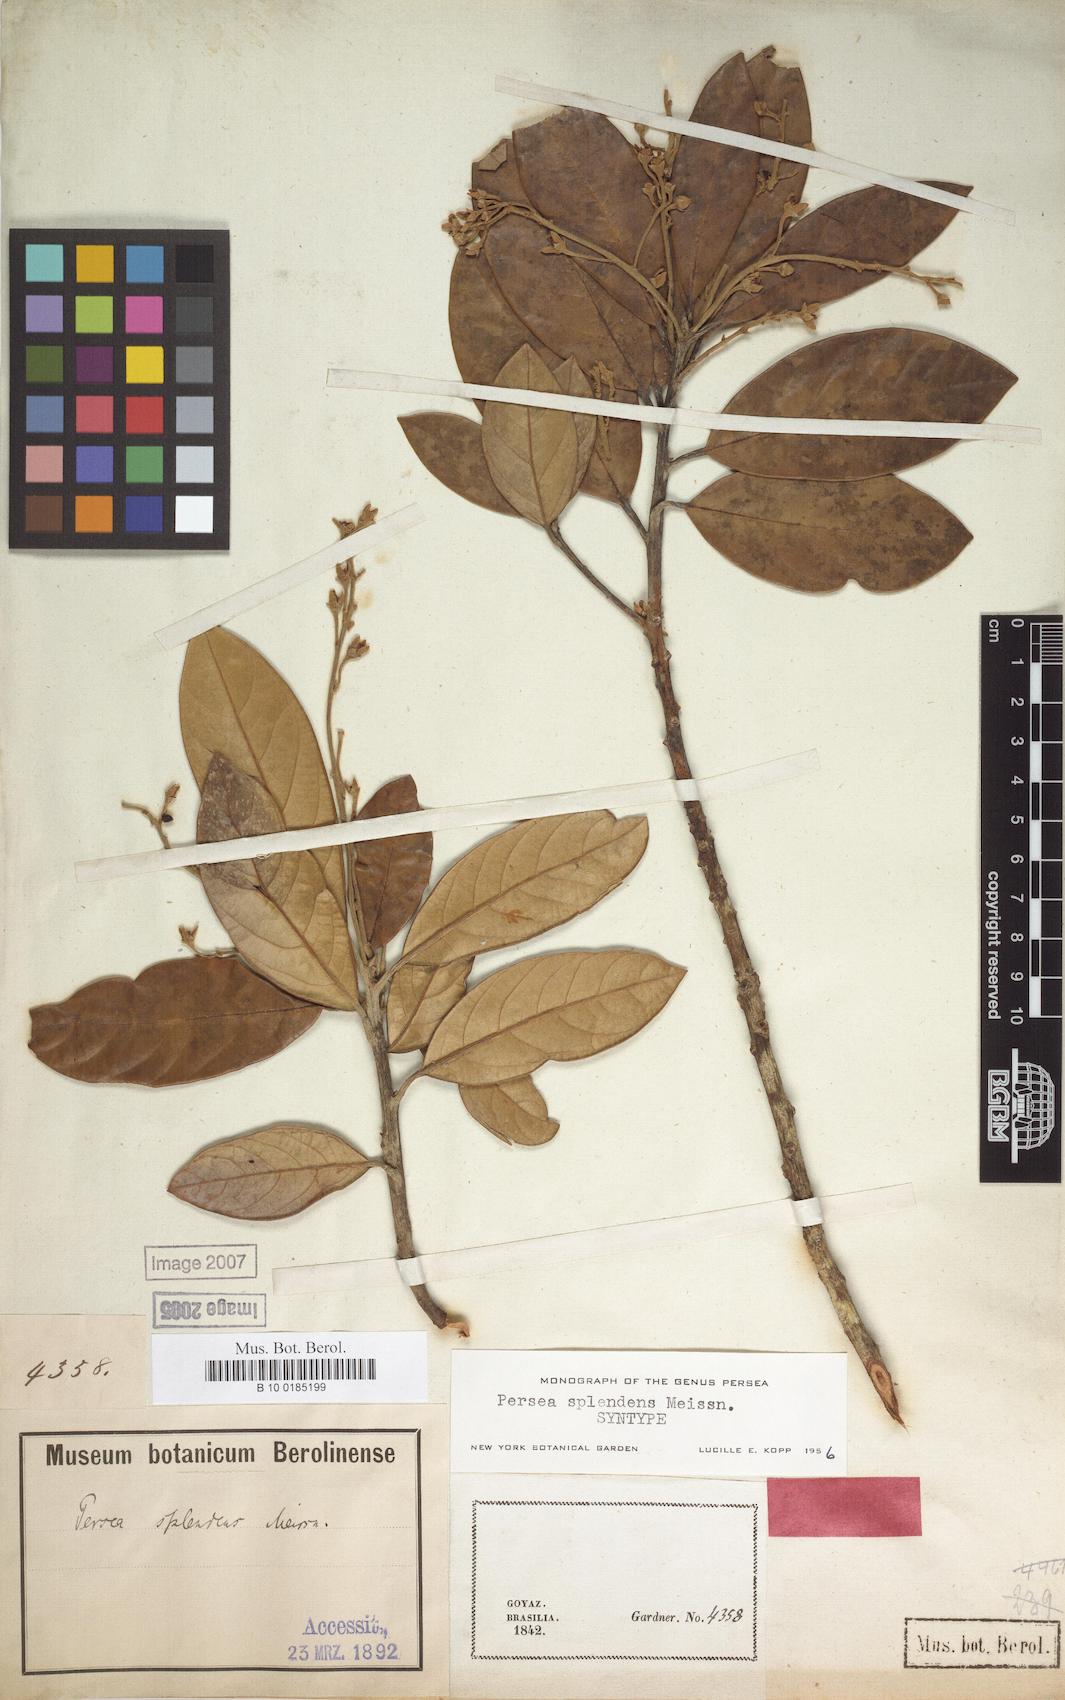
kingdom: Plantae
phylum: Tracheophyta
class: Magnoliopsida
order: Laurales
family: Lauraceae
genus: Persea
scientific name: Persea splendens
